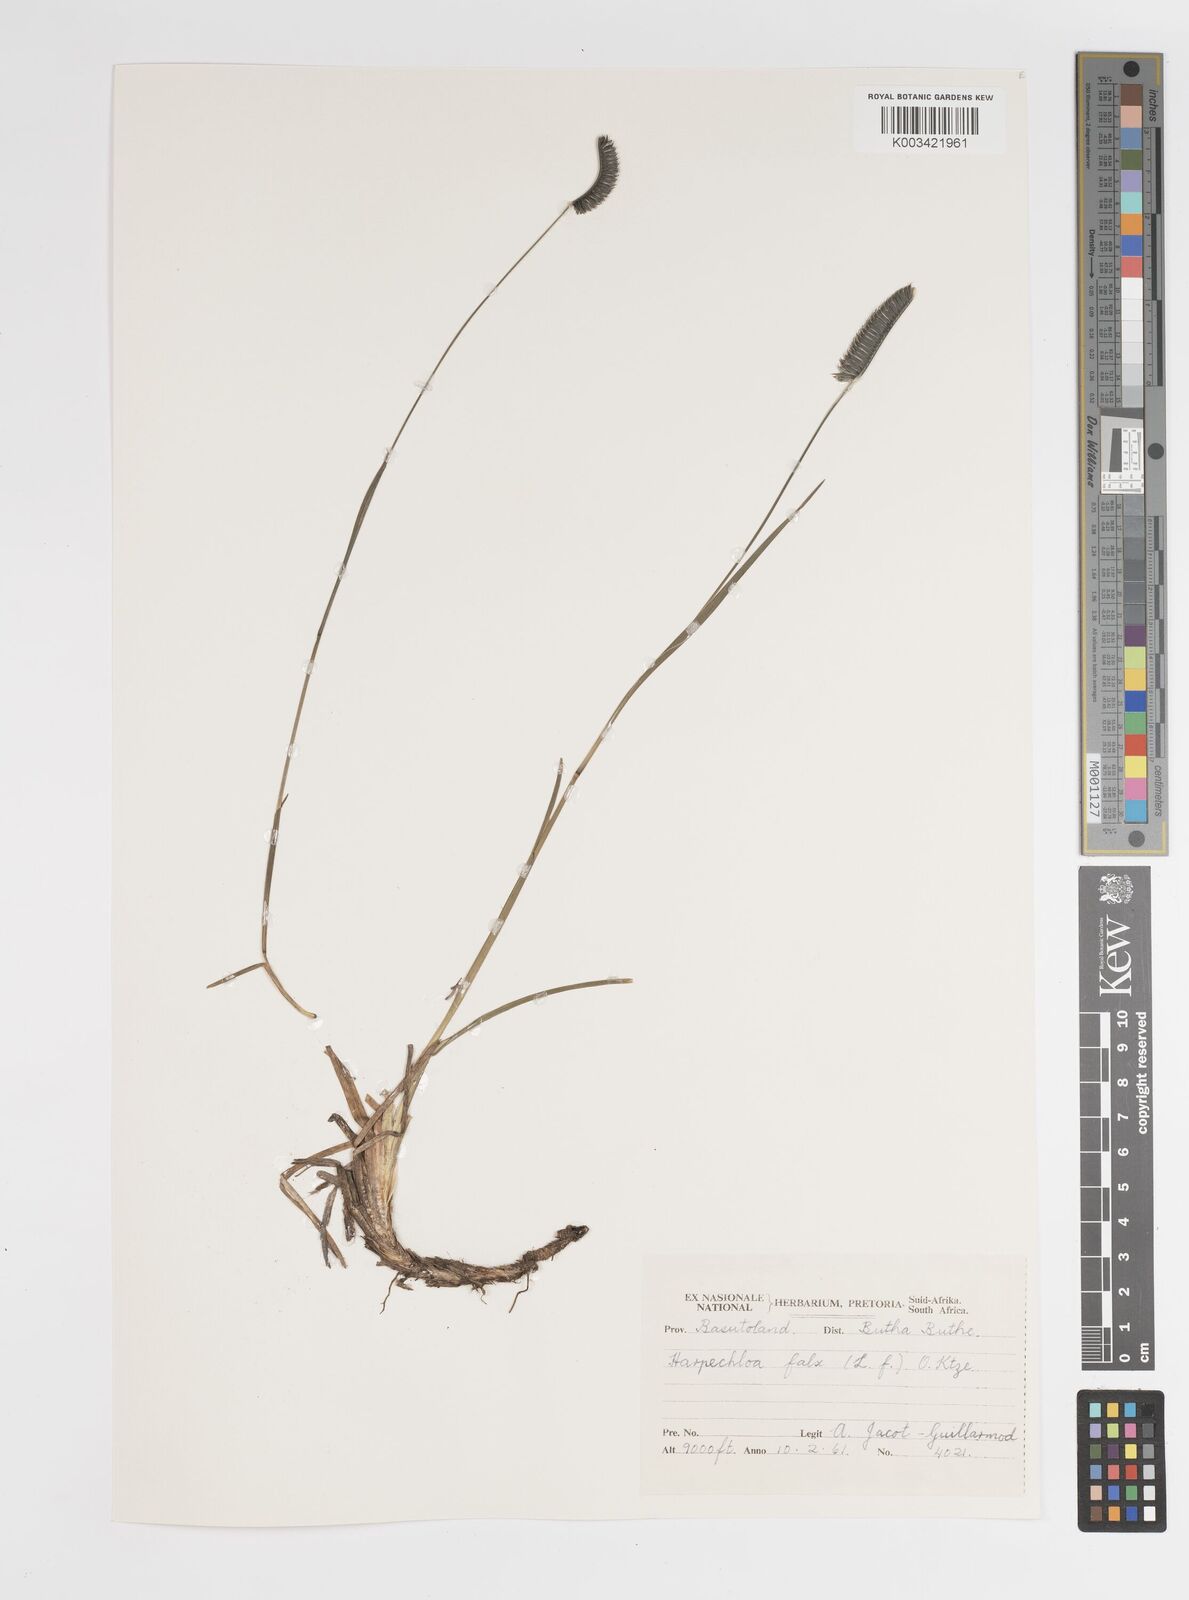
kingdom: Plantae
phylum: Tracheophyta
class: Liliopsida
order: Poales
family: Poaceae
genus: Harpochloa
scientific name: Harpochloa falx
